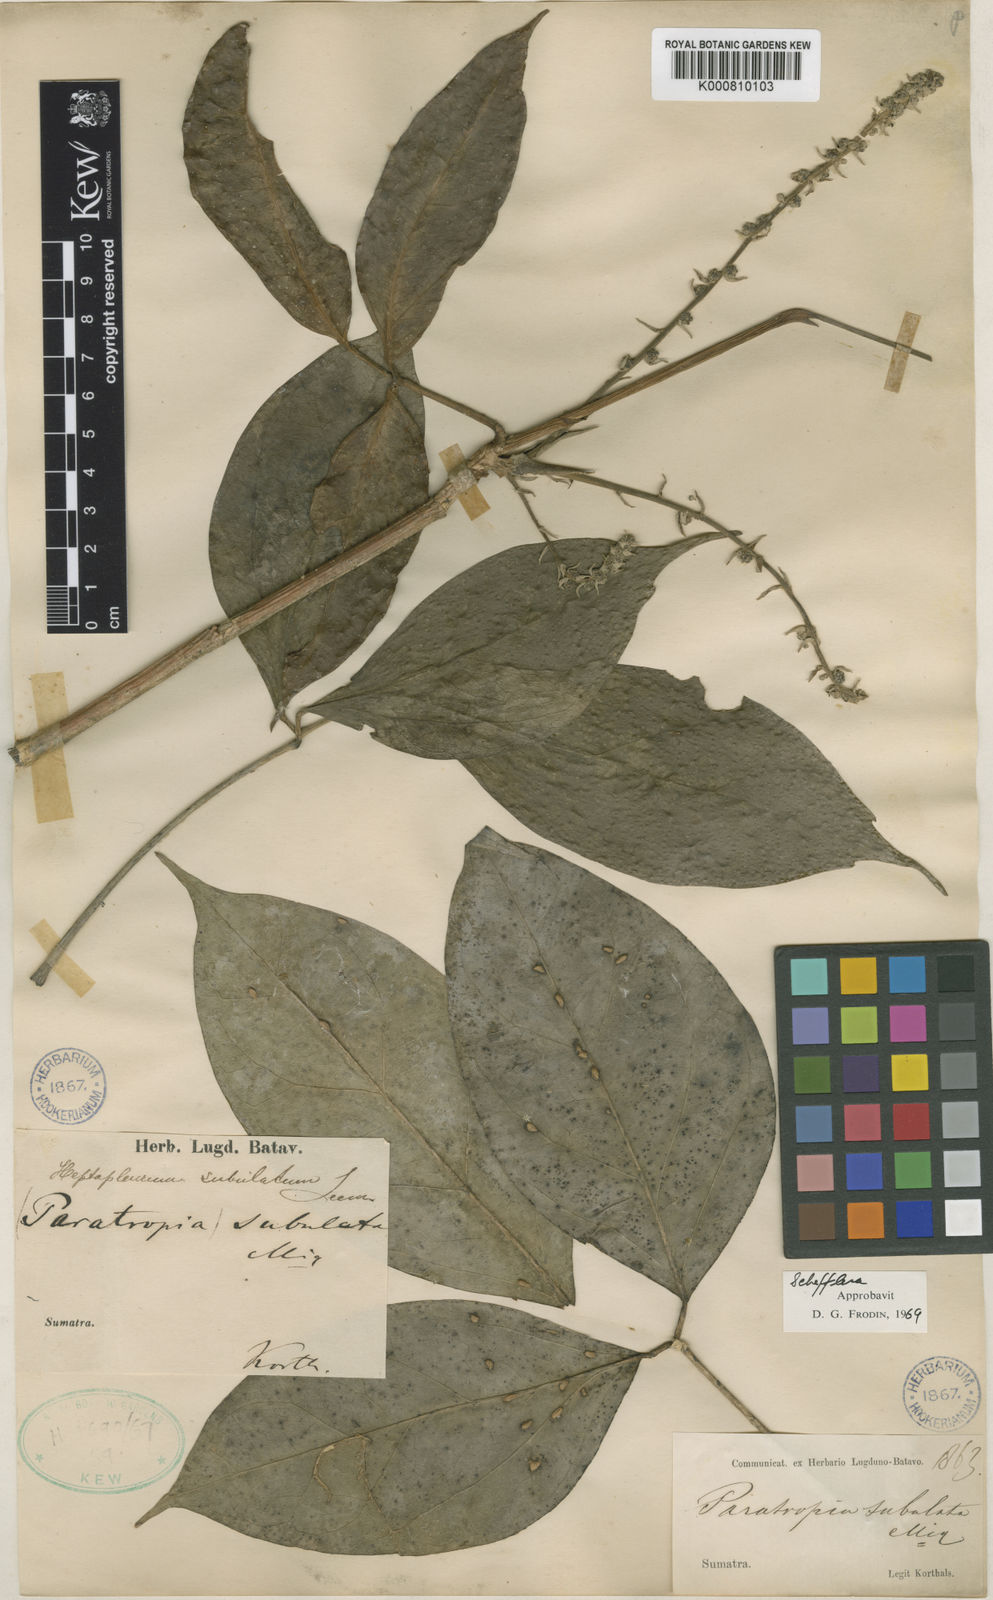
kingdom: Plantae
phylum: Tracheophyta
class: Magnoliopsida
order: Apiales
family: Araliaceae
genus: Heptapleurum
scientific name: Heptapleurum oxyphyllum
